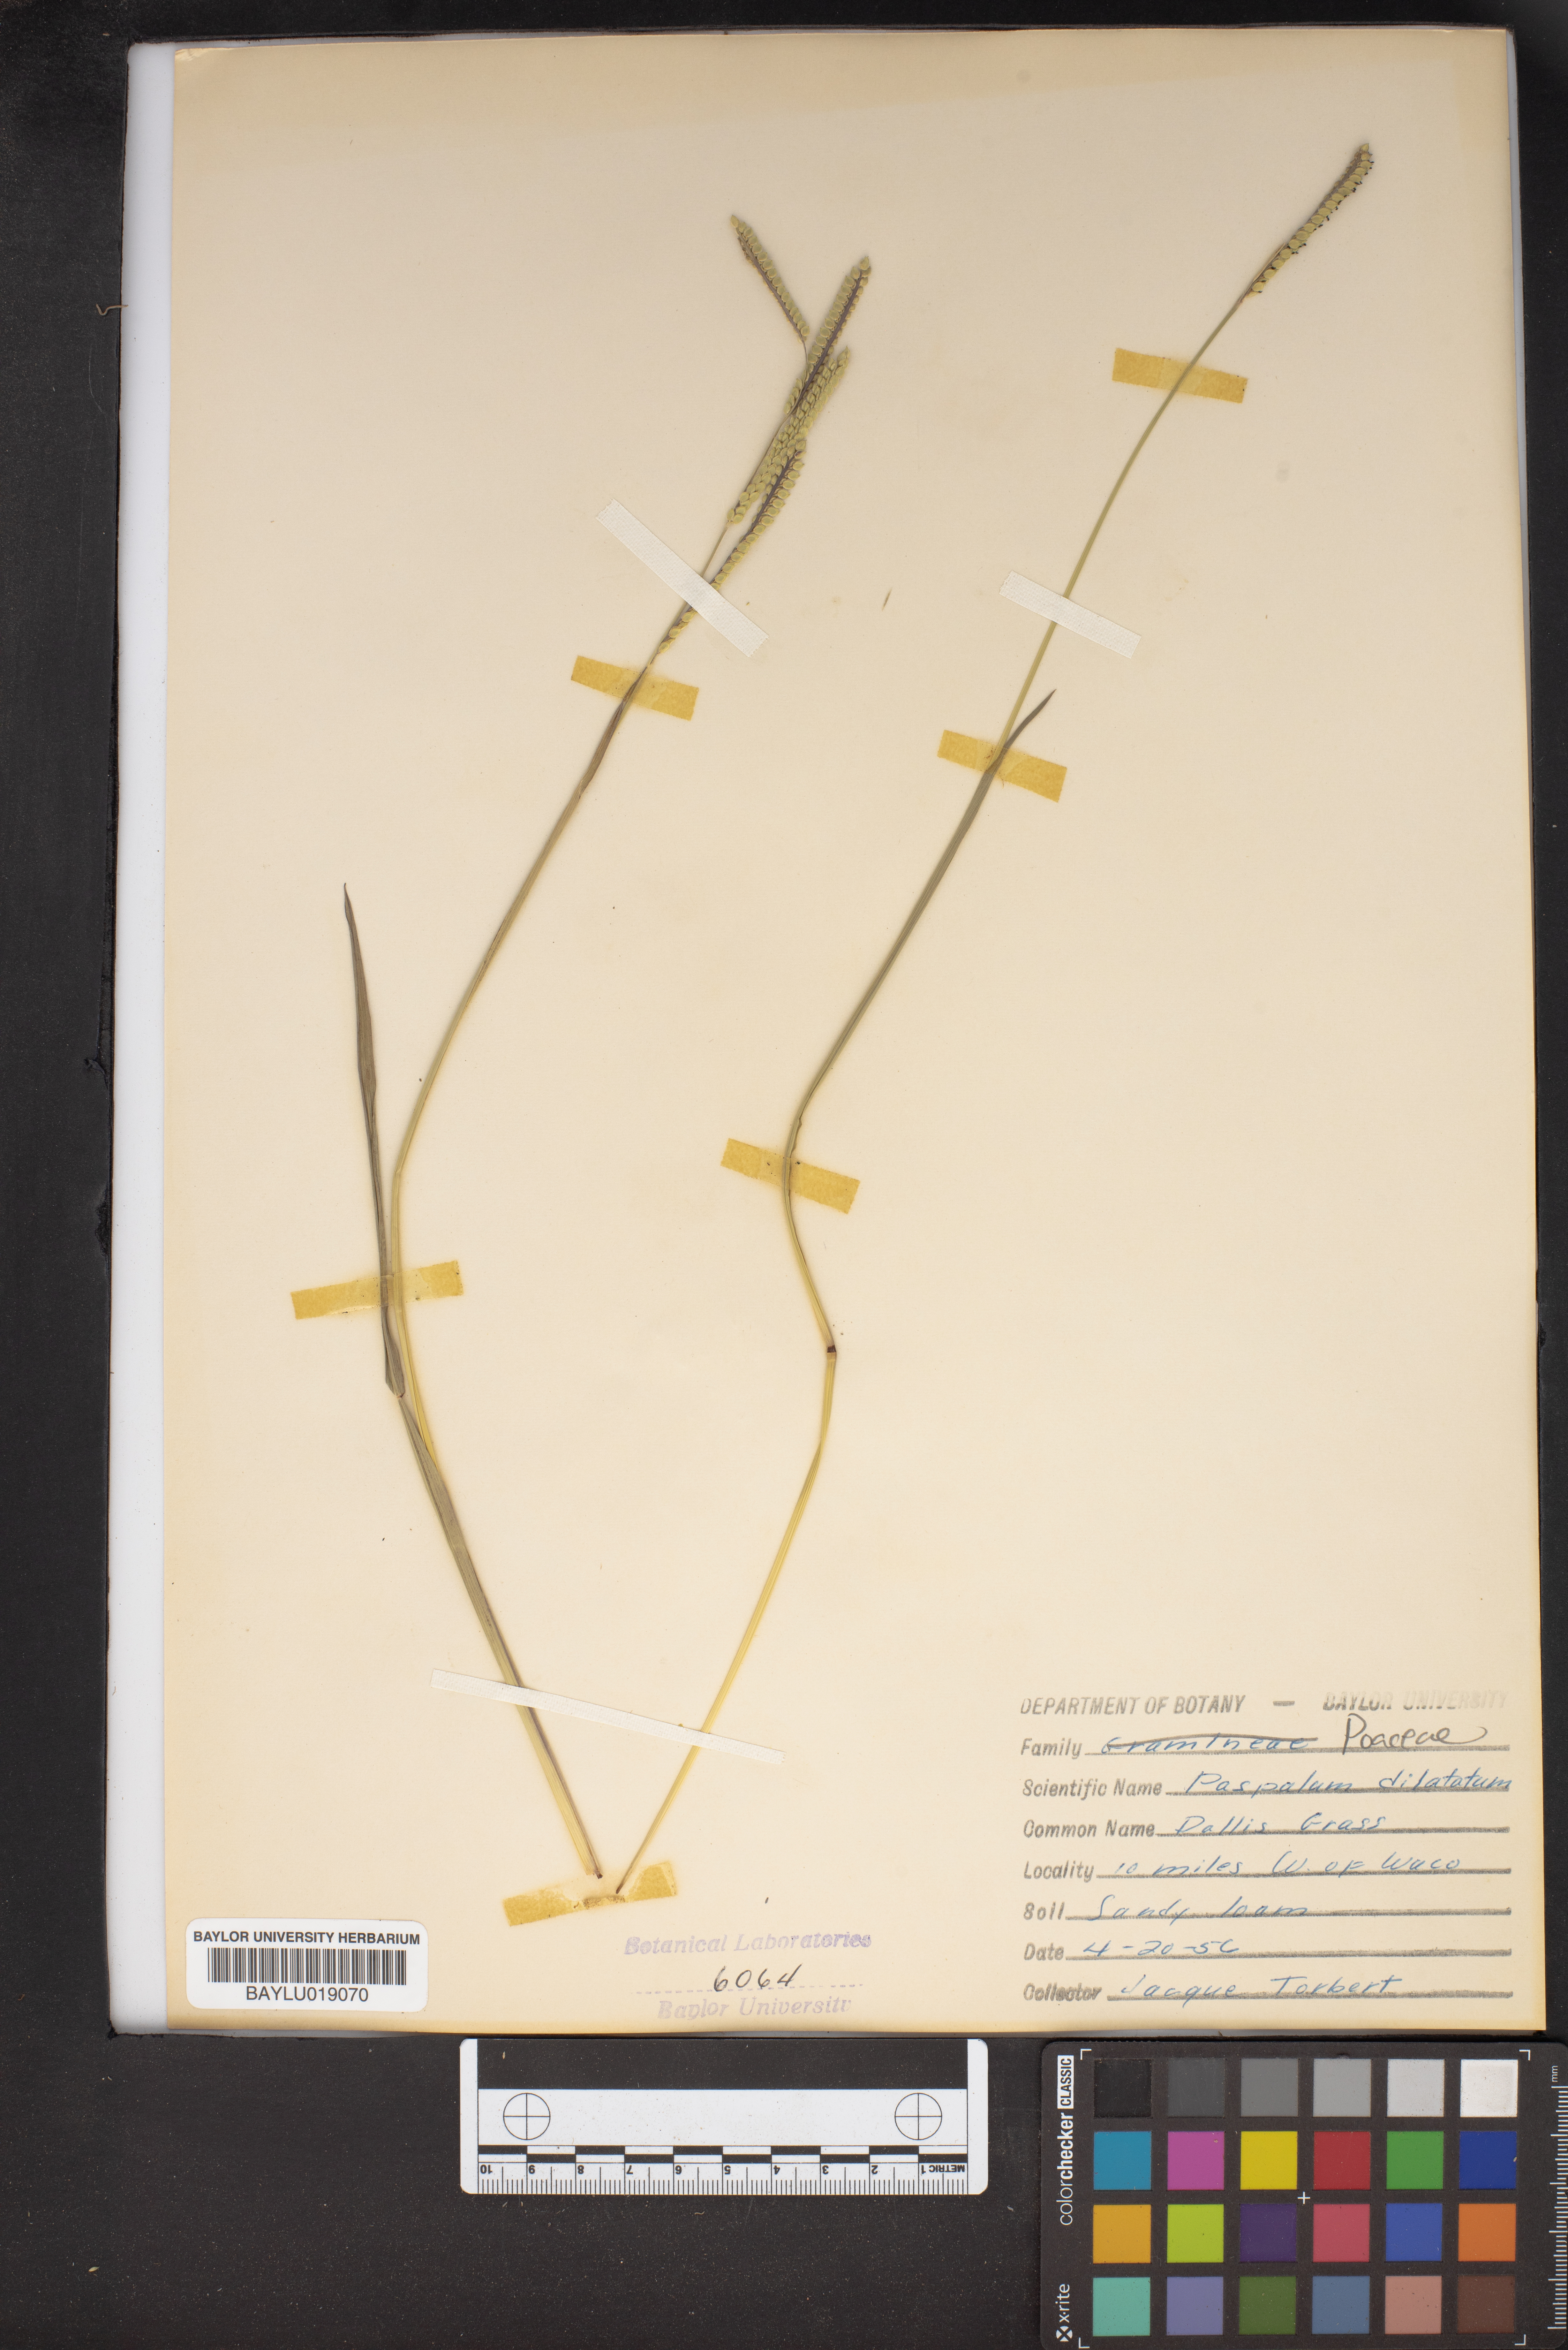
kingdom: Plantae
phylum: Tracheophyta
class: Liliopsida
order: Poales
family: Poaceae
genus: Paspalum
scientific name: Paspalum dilatatum
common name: Dallisgrass
